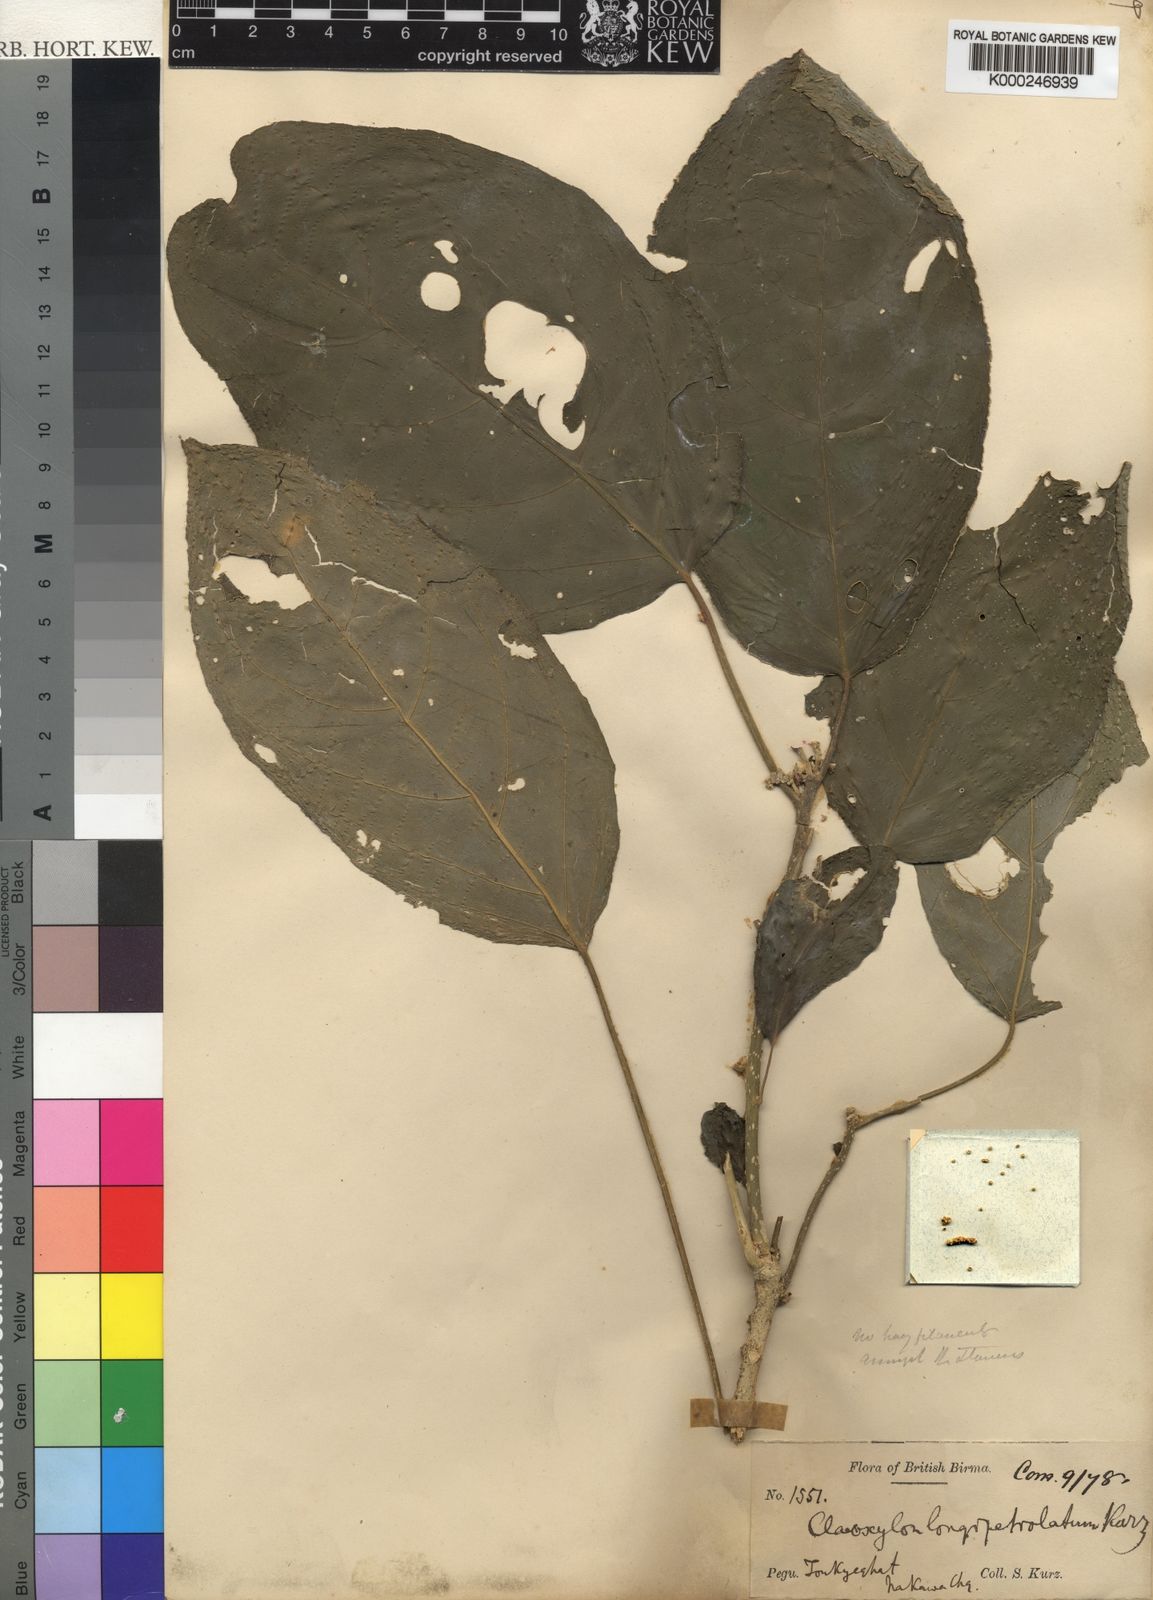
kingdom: Plantae
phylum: Tracheophyta
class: Magnoliopsida
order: Malpighiales
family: Euphorbiaceae
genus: Claoxylon
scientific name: Claoxylon longipetiolatum
